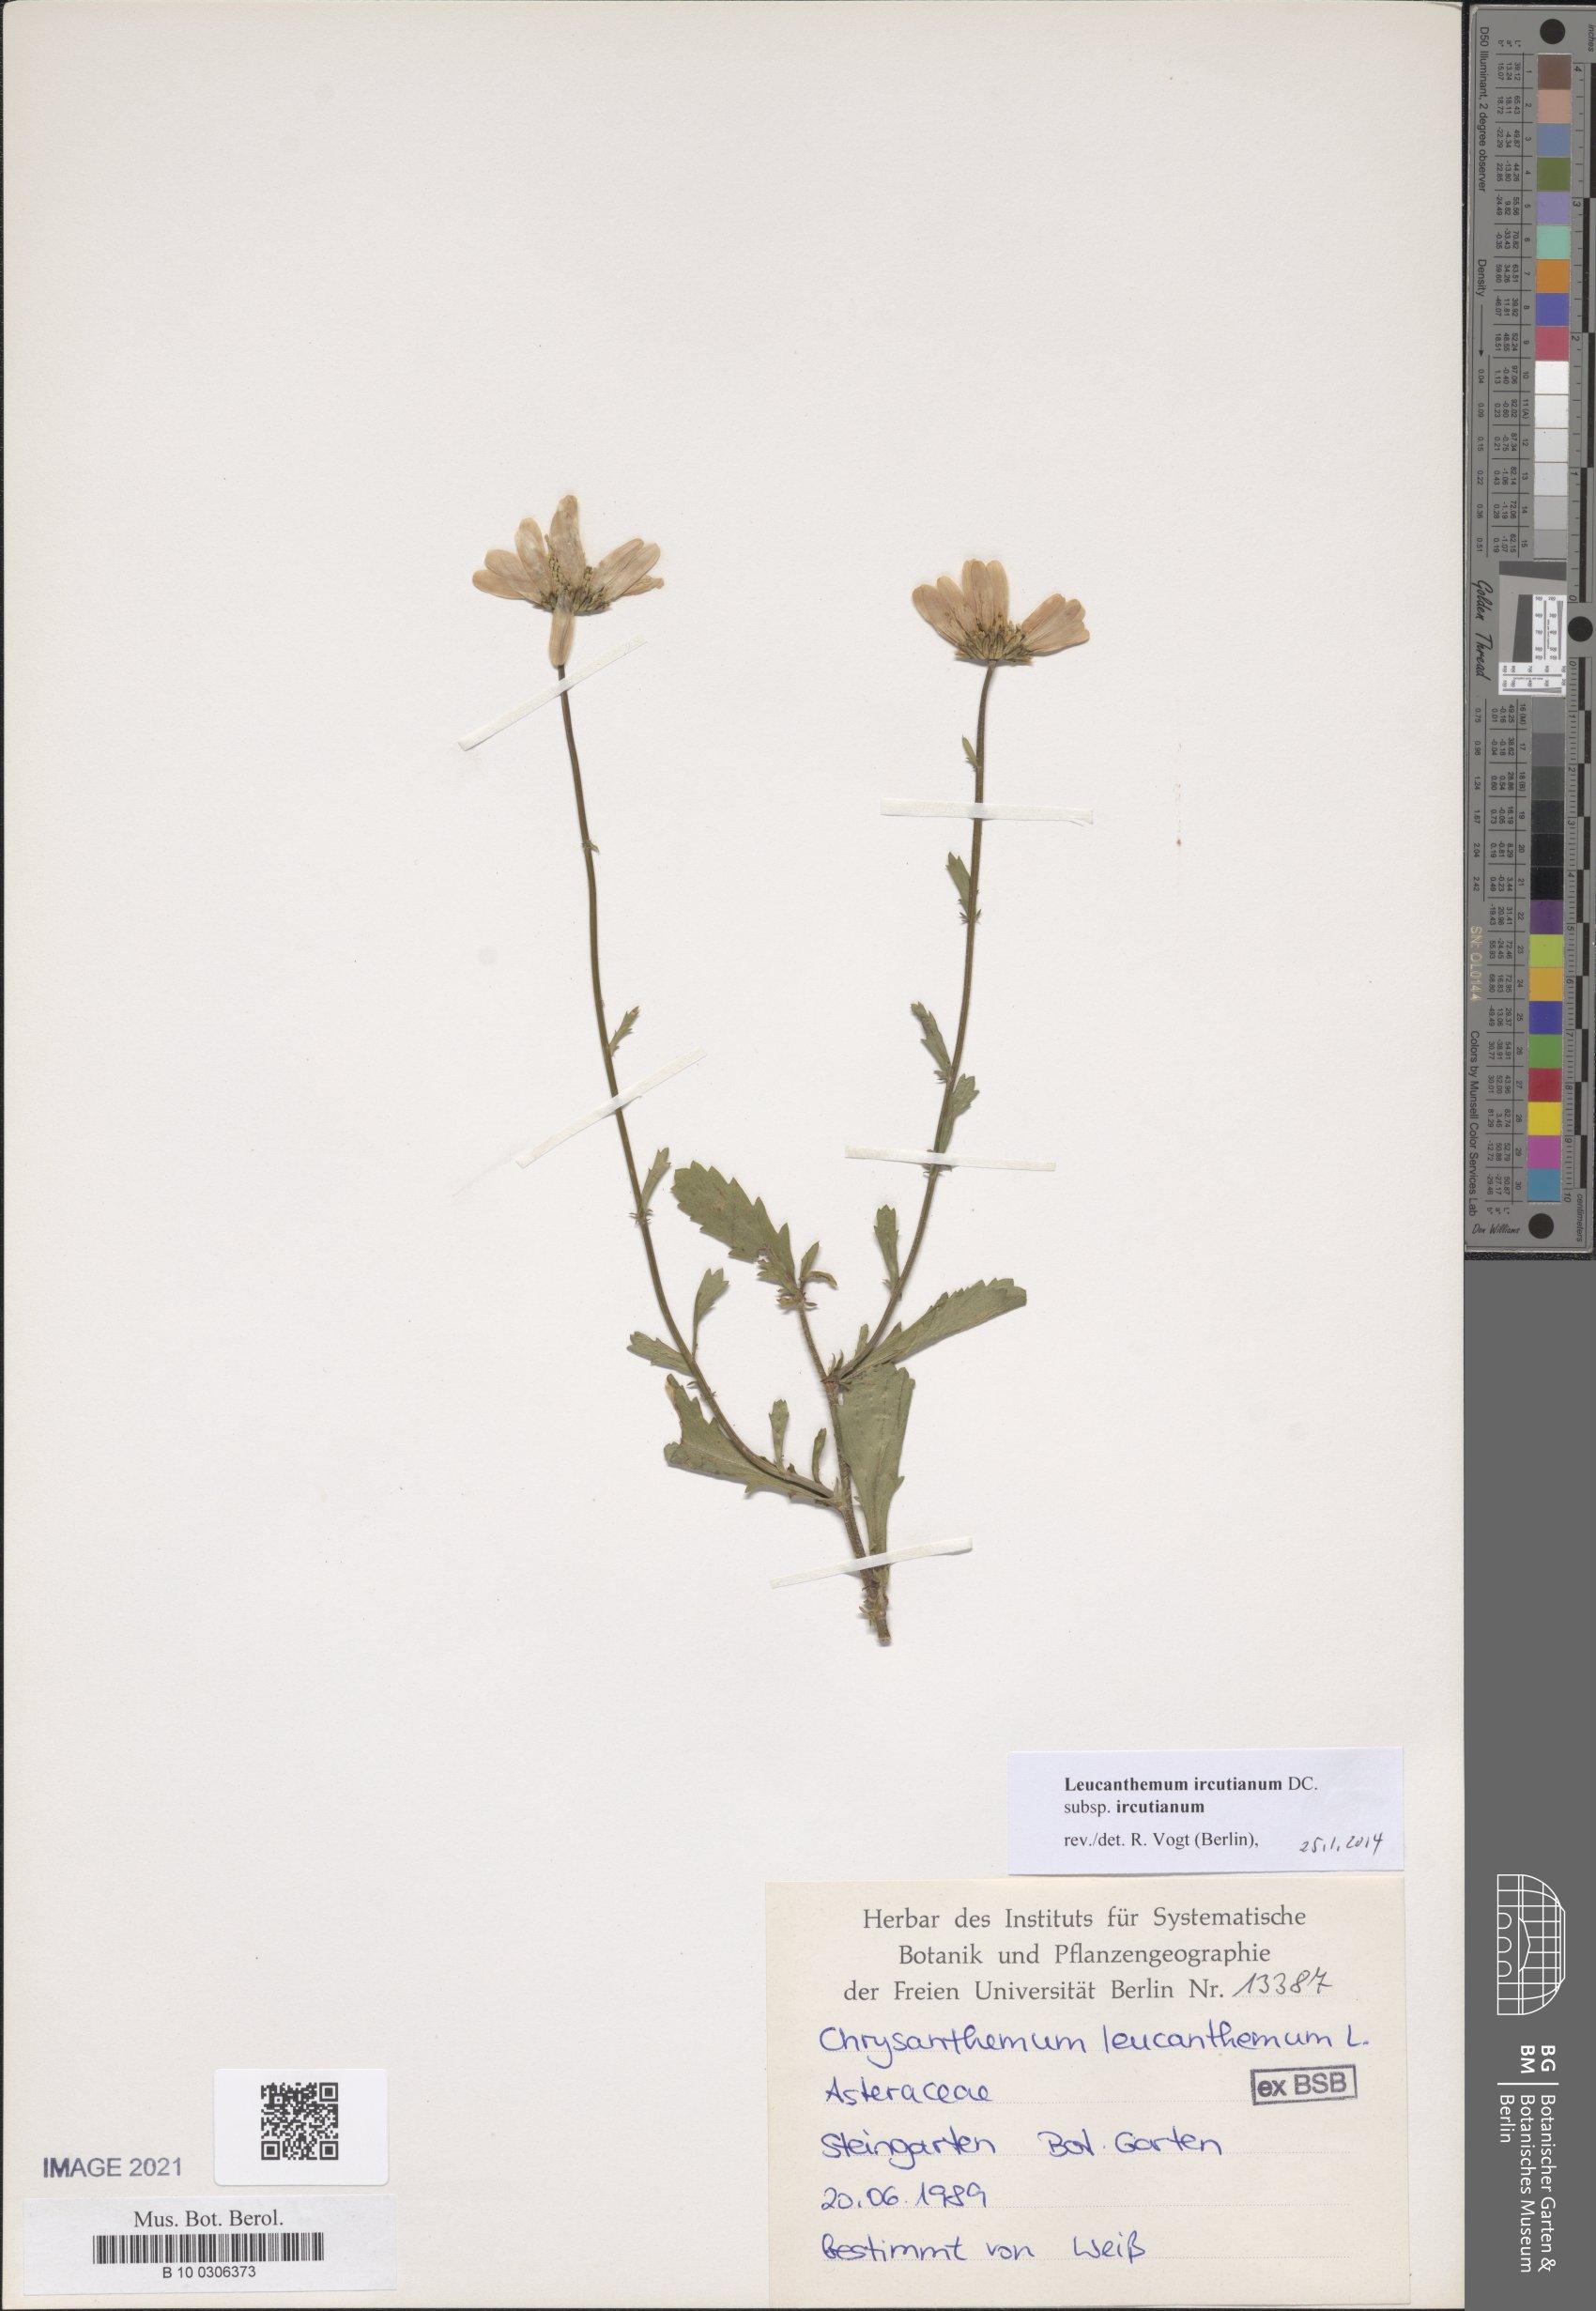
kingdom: Plantae
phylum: Tracheophyta
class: Magnoliopsida
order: Asterales
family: Asteraceae
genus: Leucanthemum
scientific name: Leucanthemum ircutianum
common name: Daisy
